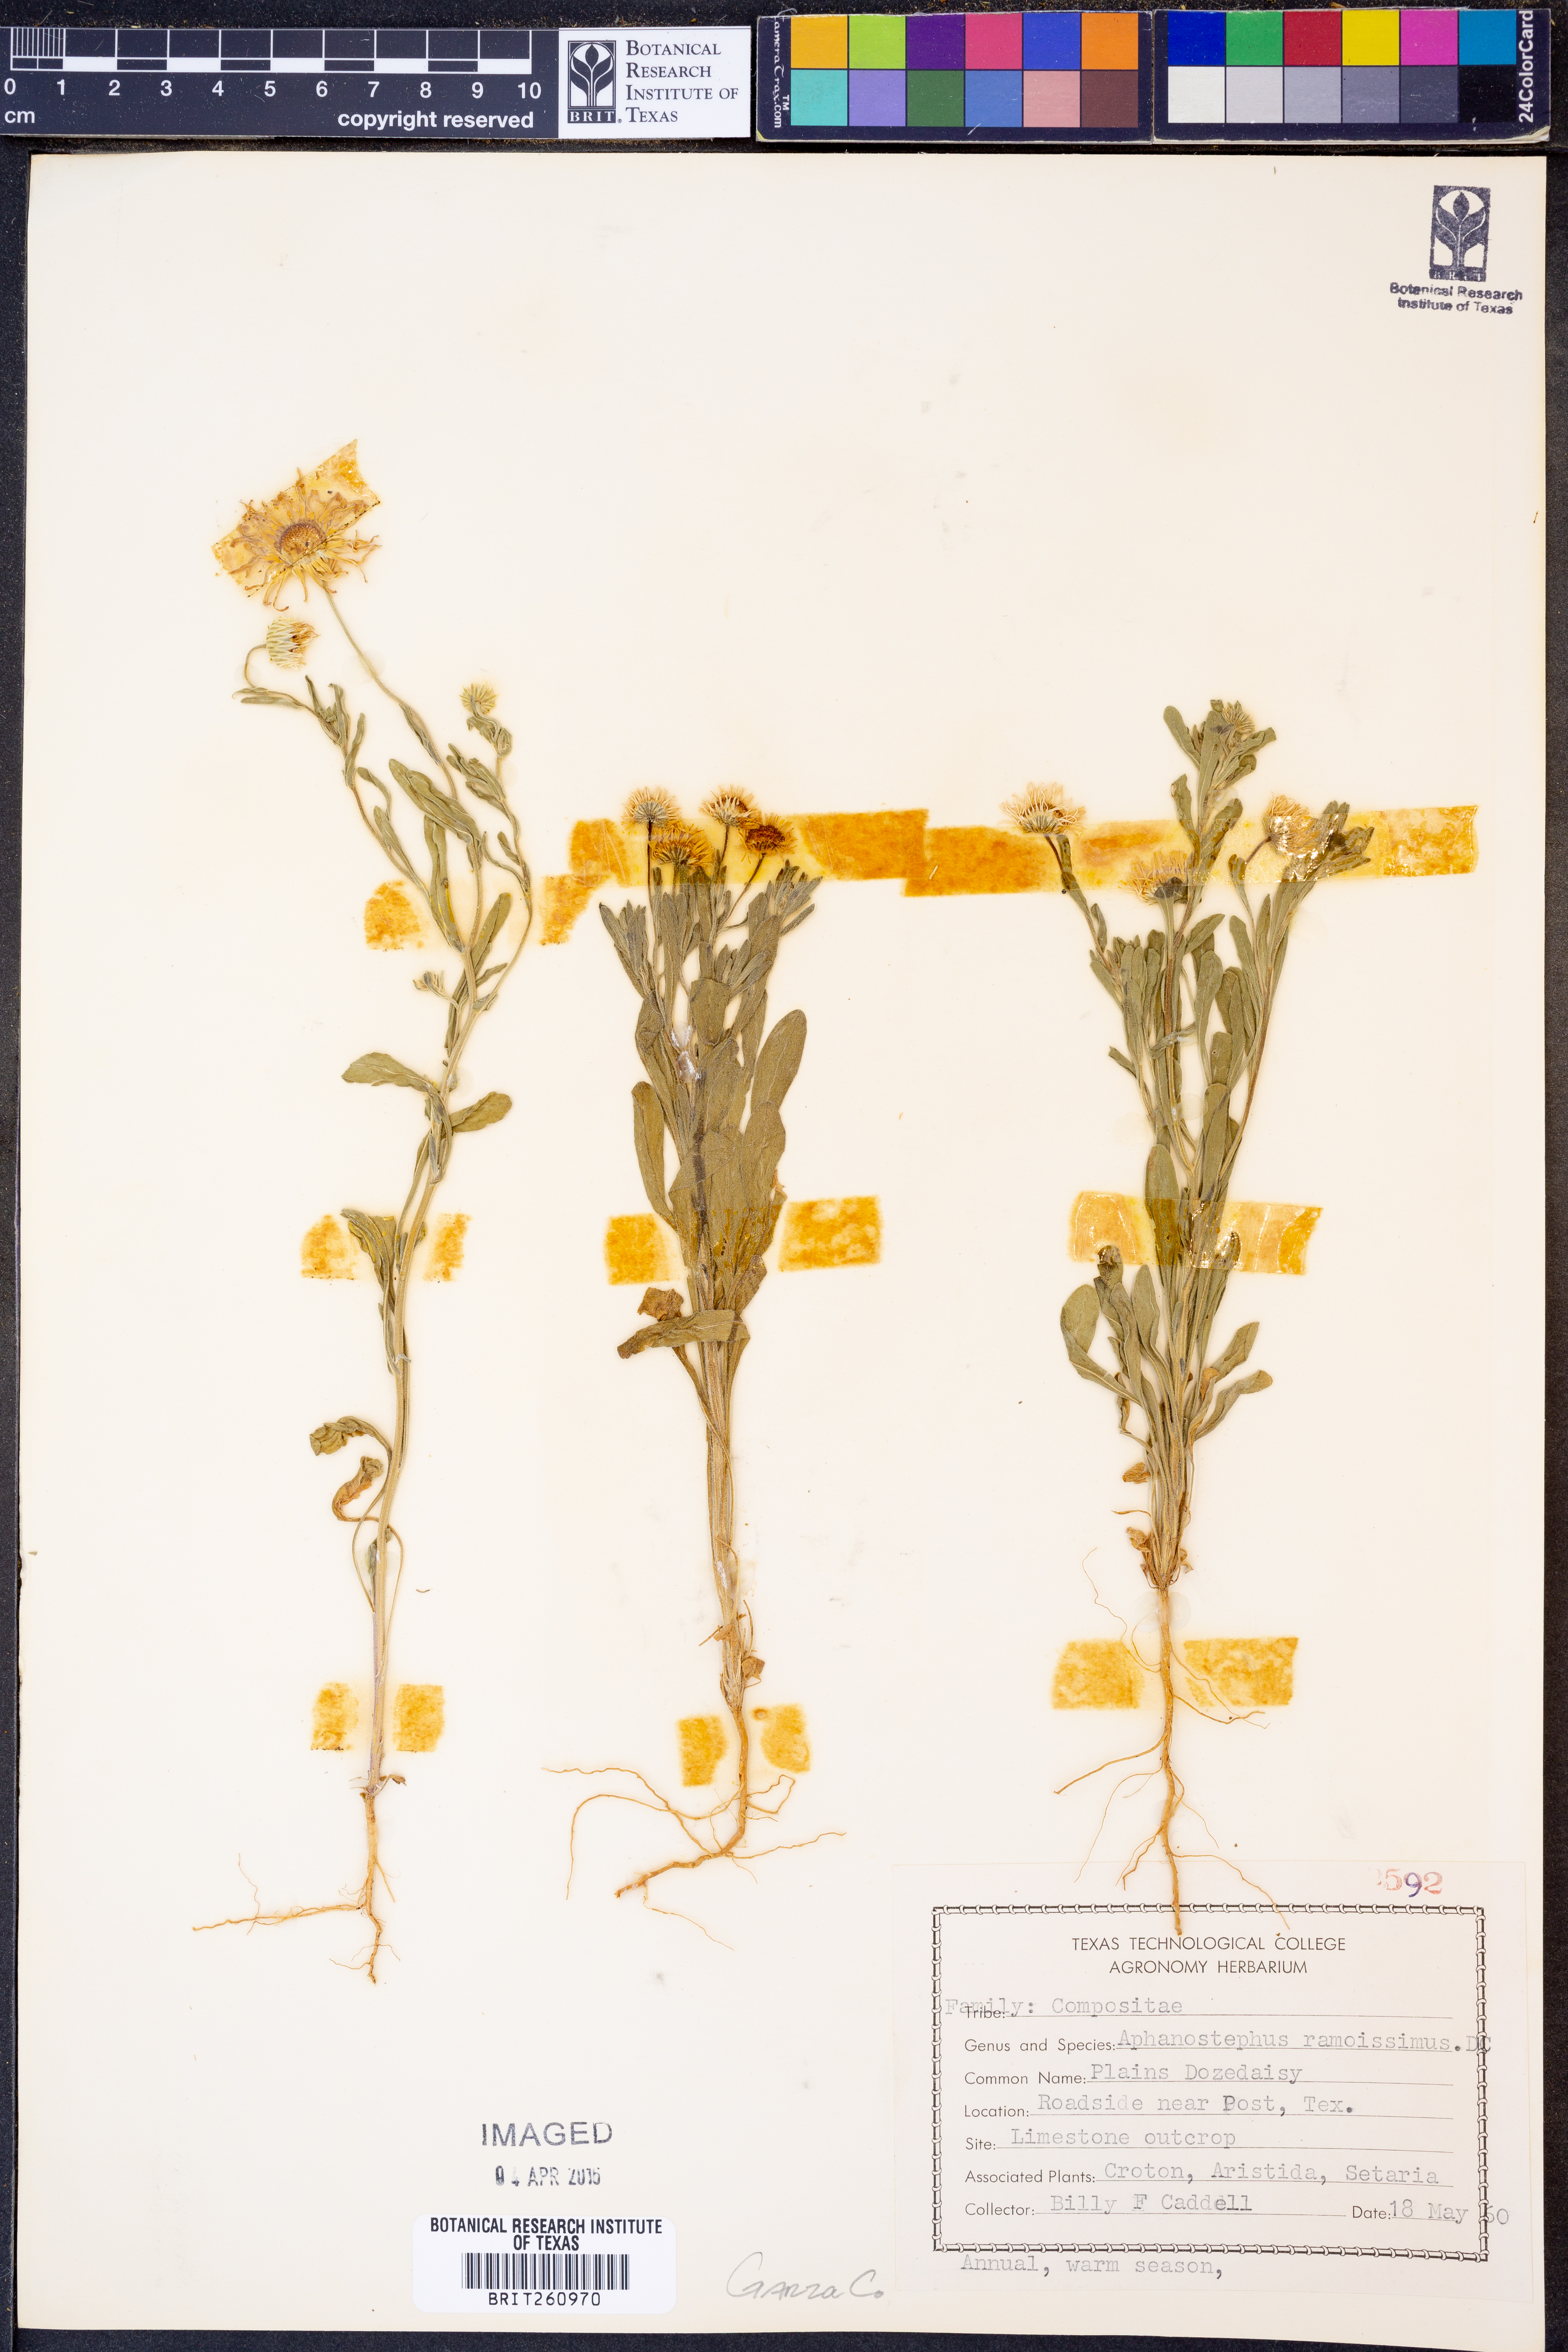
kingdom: Plantae
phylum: Tracheophyta
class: Magnoliopsida
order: Asterales
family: Asteraceae
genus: Aphanostephus
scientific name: Aphanostephus ramosissimus
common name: Plains lazy daisy
